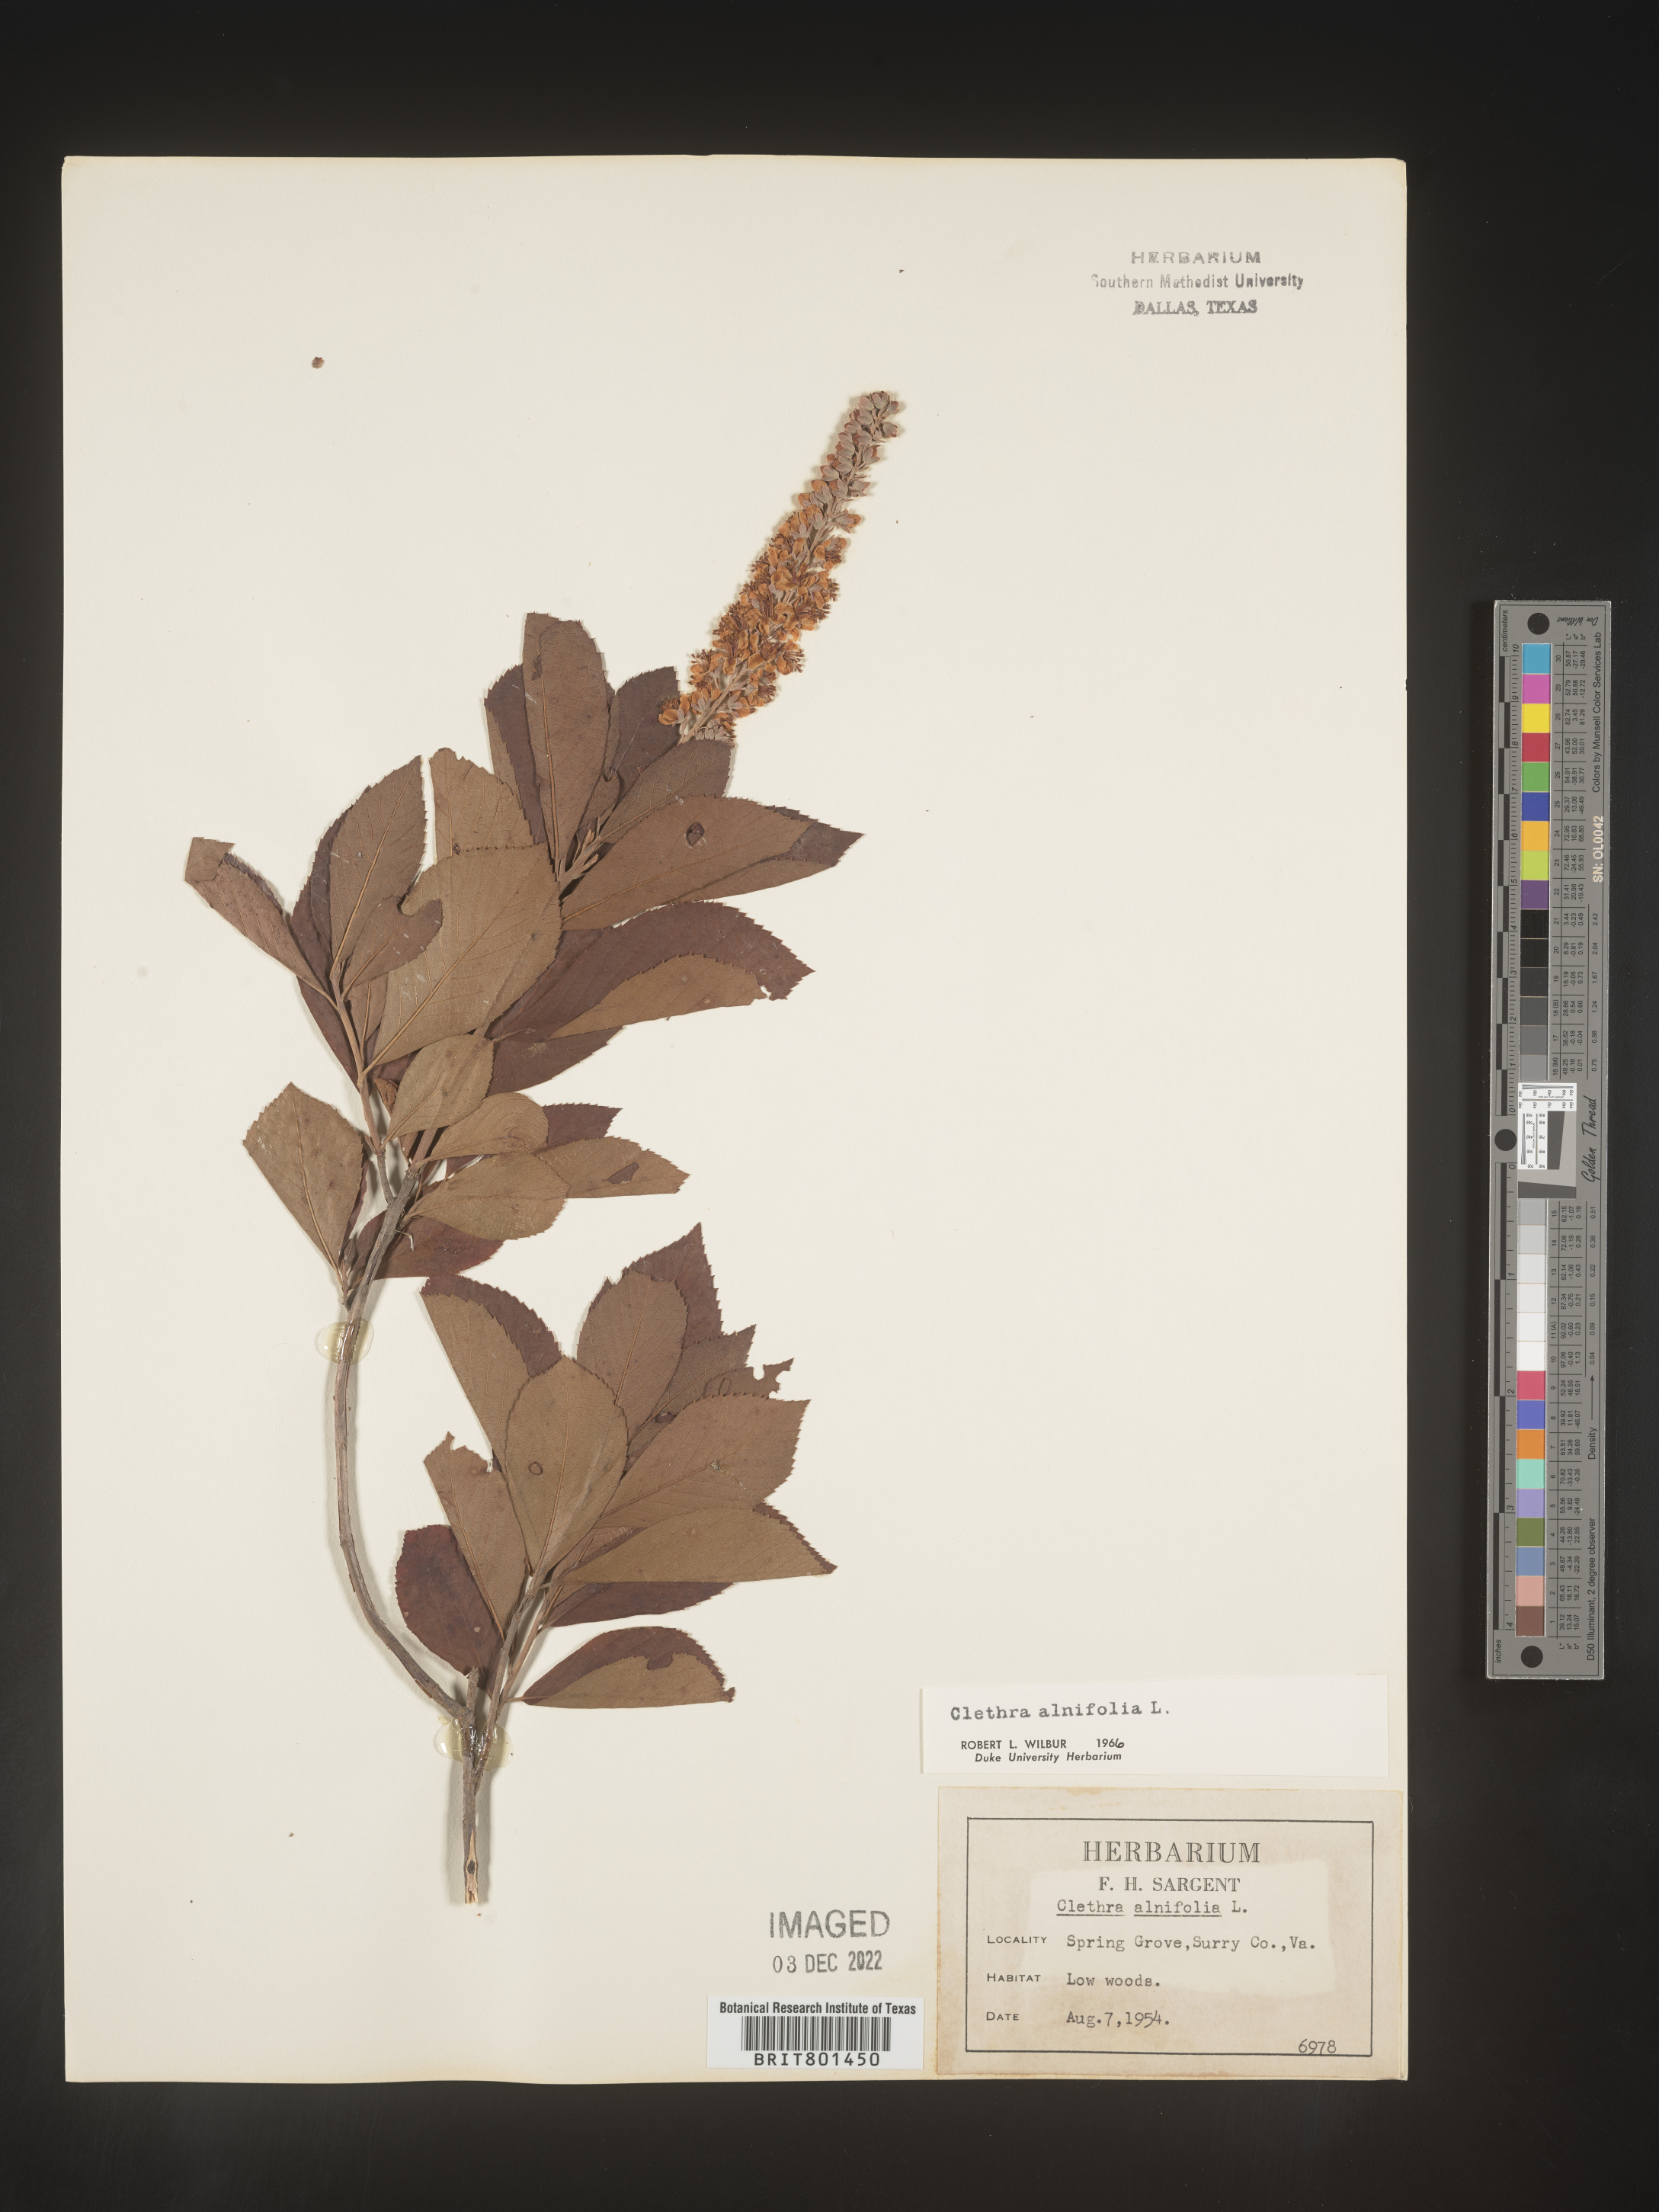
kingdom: Plantae
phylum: Tracheophyta
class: Magnoliopsida
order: Ericales
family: Clethraceae
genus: Clethra
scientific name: Clethra alnifolia
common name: Sweet pepperbush
